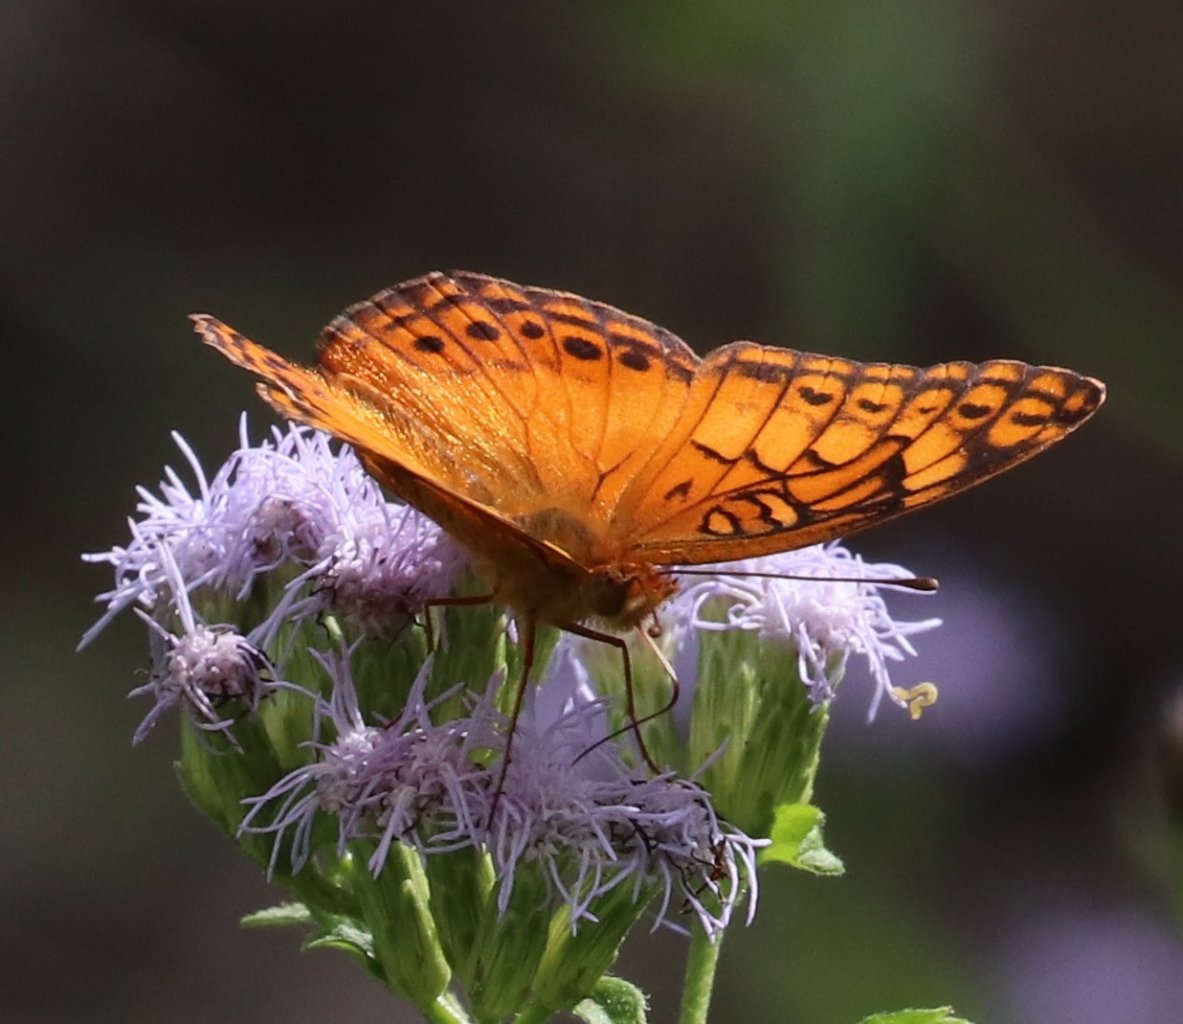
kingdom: Animalia
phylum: Arthropoda
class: Insecta
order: Lepidoptera
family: Nymphalidae
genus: Euptoieta
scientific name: Euptoieta hegesia
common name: Mexican Fritillary
